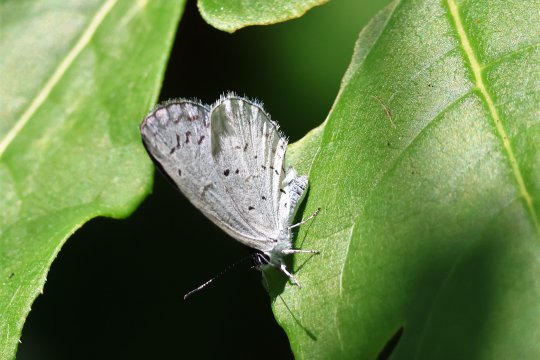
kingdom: Animalia
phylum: Arthropoda
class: Insecta
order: Lepidoptera
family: Lycaenidae
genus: Cyaniris
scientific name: Cyaniris neglecta
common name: Summer Azure
